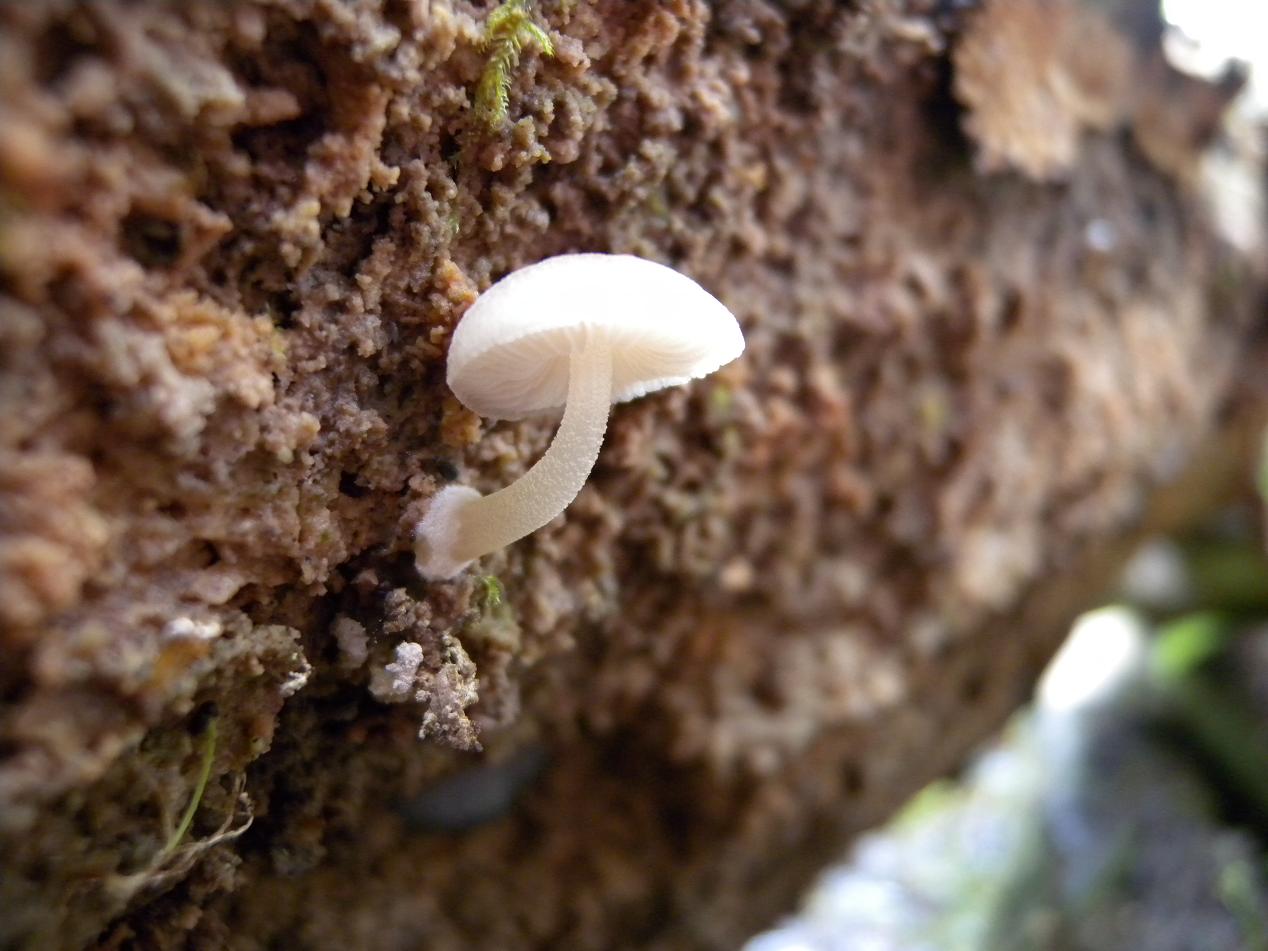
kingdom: Fungi
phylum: Basidiomycota
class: Agaricomycetes
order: Agaricales
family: Pluteaceae
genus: Pluteus
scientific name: Pluteus semibulbosus
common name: knoldet skærmhat
